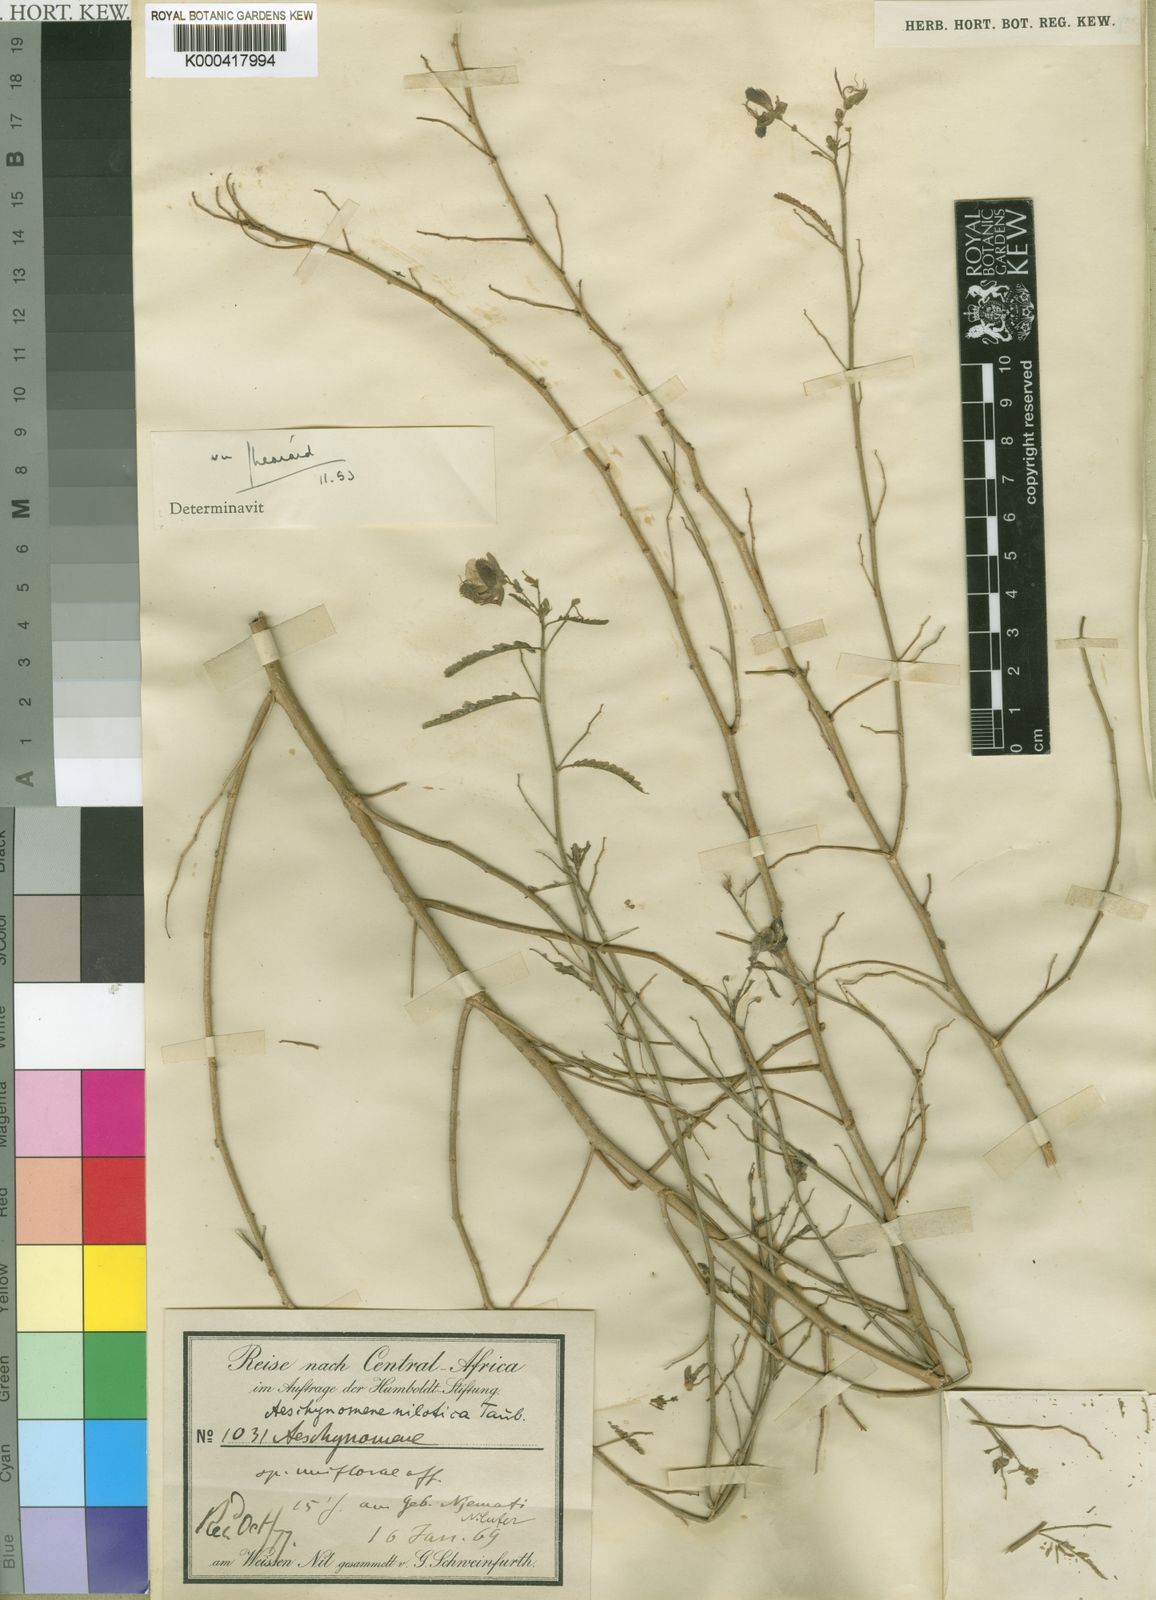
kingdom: Plantae
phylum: Tracheophyta
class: Magnoliopsida
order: Fabales
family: Fabaceae
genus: Aeschynomene
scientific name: Aeschynomene nilotica
